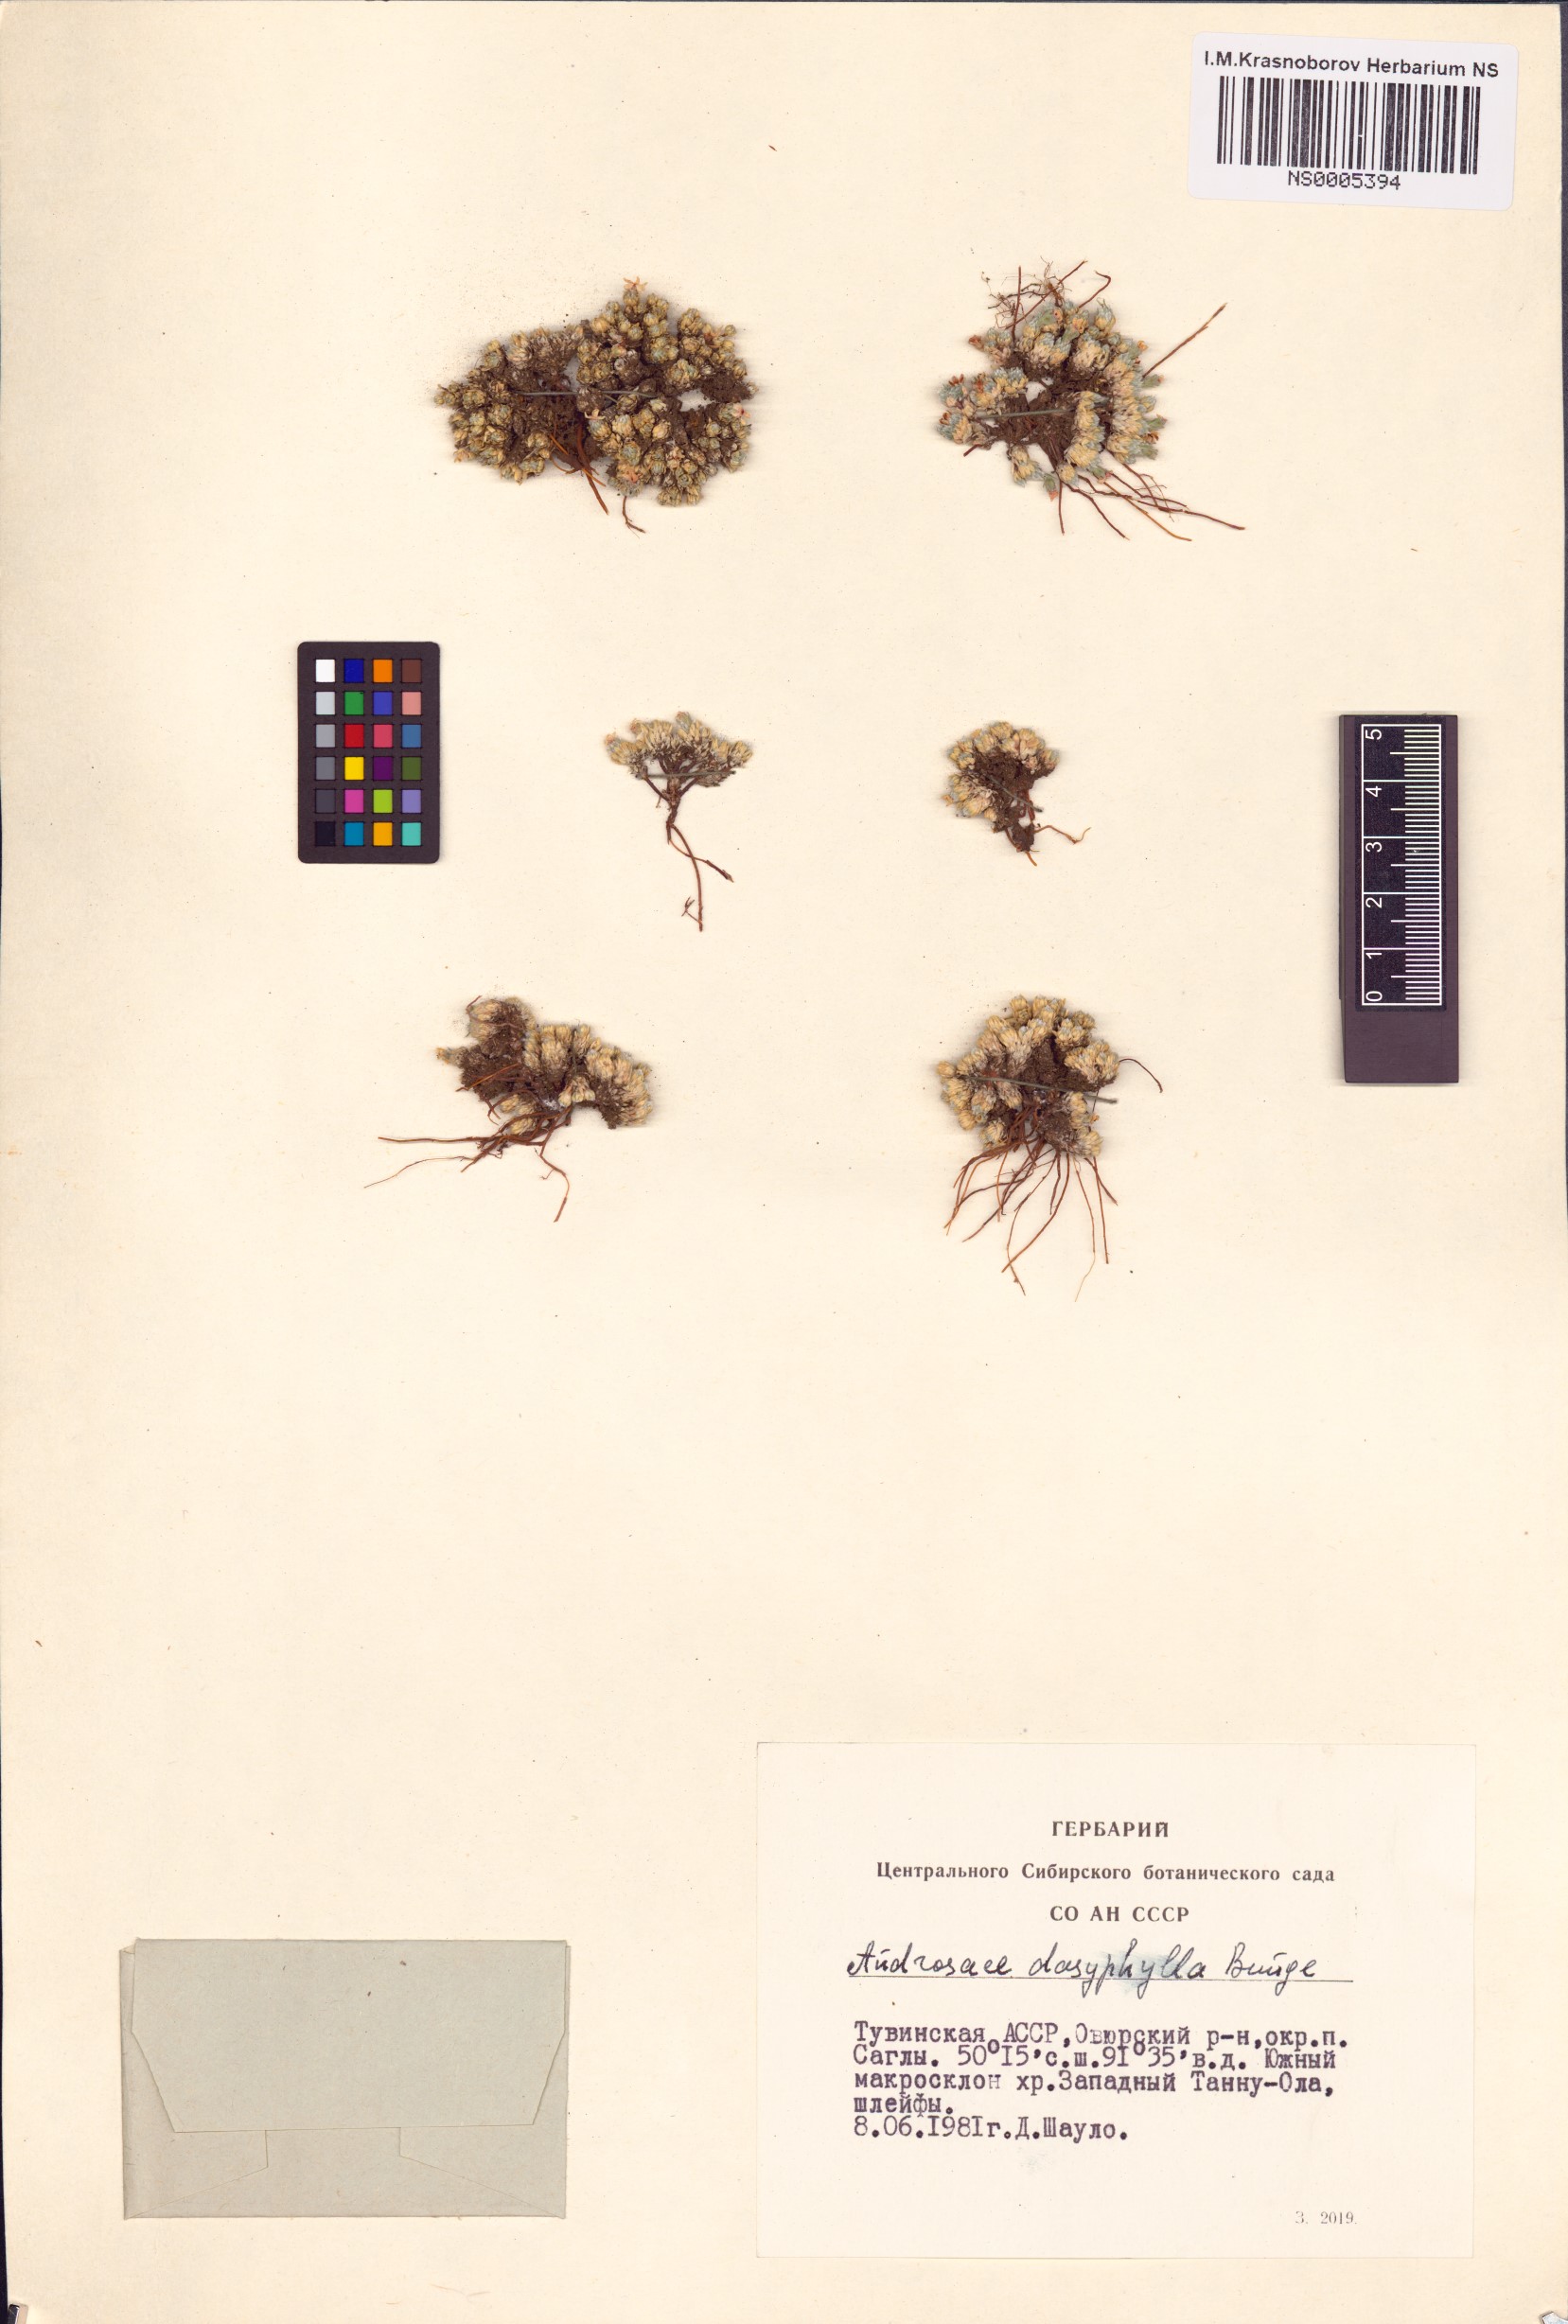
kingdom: Plantae
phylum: Tracheophyta
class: Magnoliopsida
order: Ericales
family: Primulaceae
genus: Androsace
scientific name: Androsace dasyphylla
